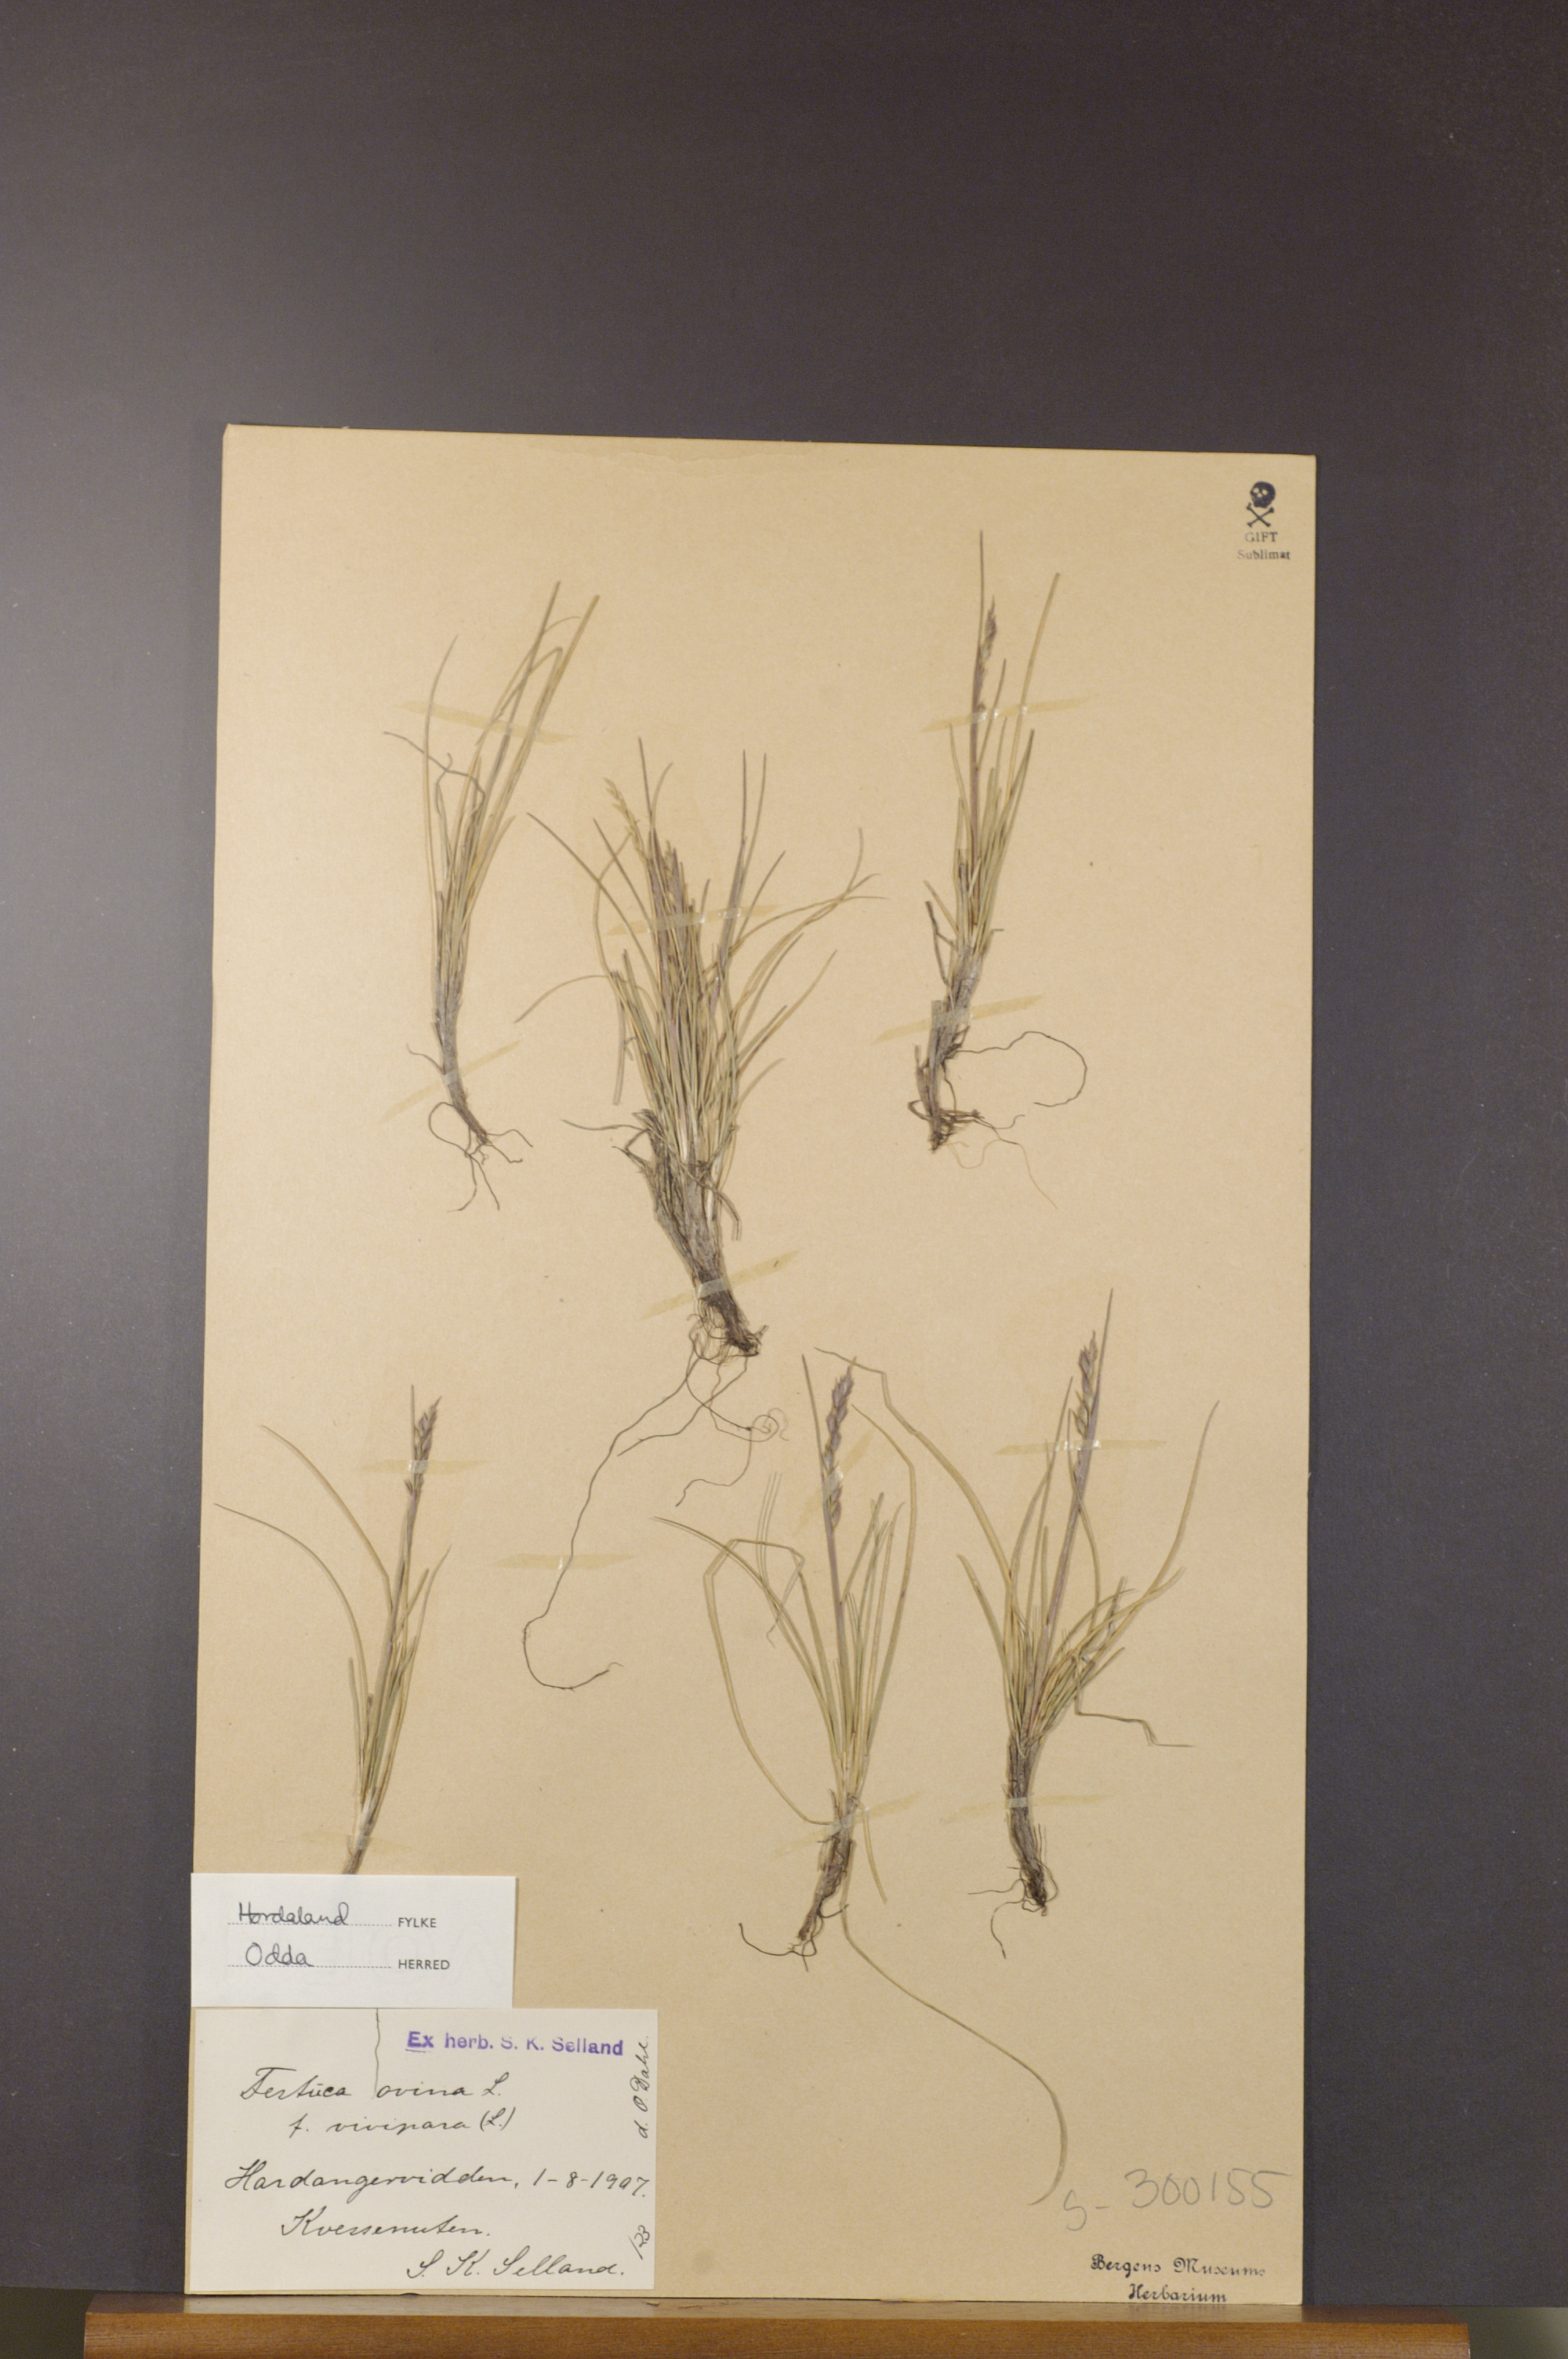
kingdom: Plantae
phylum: Tracheophyta
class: Liliopsida
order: Poales
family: Poaceae
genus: Festuca
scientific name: Festuca vivipara
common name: Viviparous sheep's-fescue
